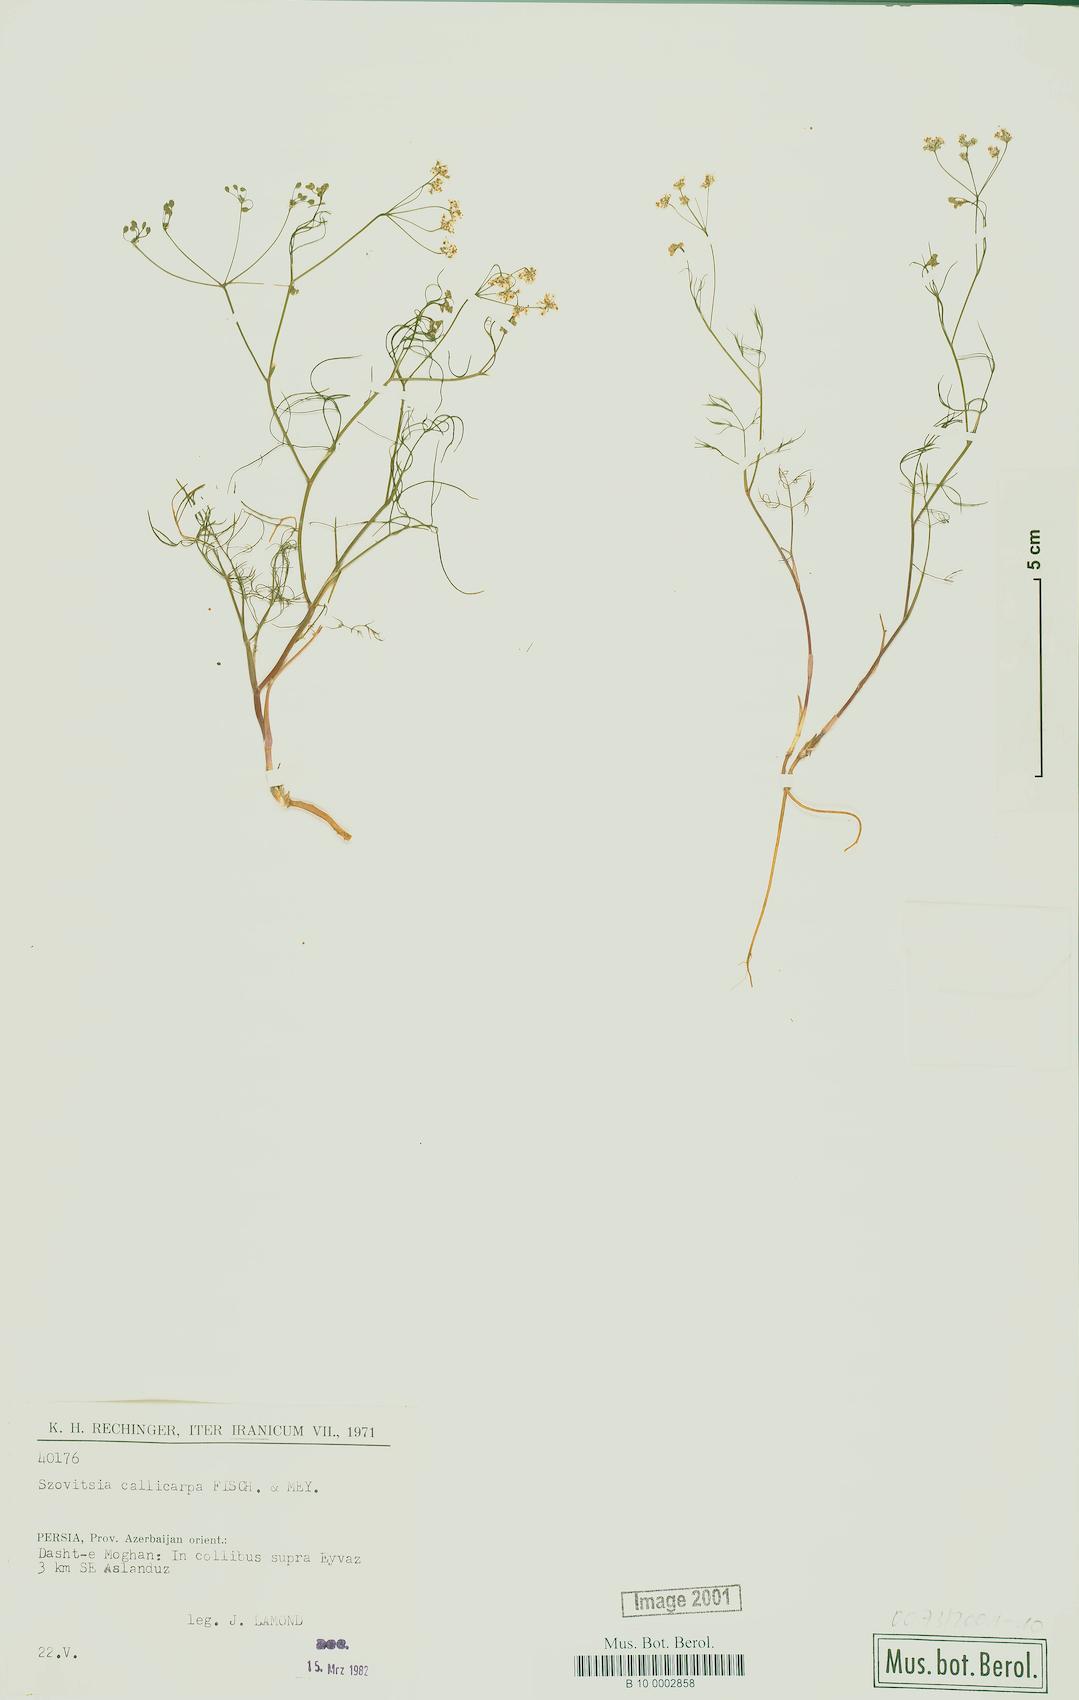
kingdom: Plantae
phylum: Tracheophyta
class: Magnoliopsida
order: Apiales
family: Apiaceae
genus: Szovitsia
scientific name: Szovitsia callicarpa
